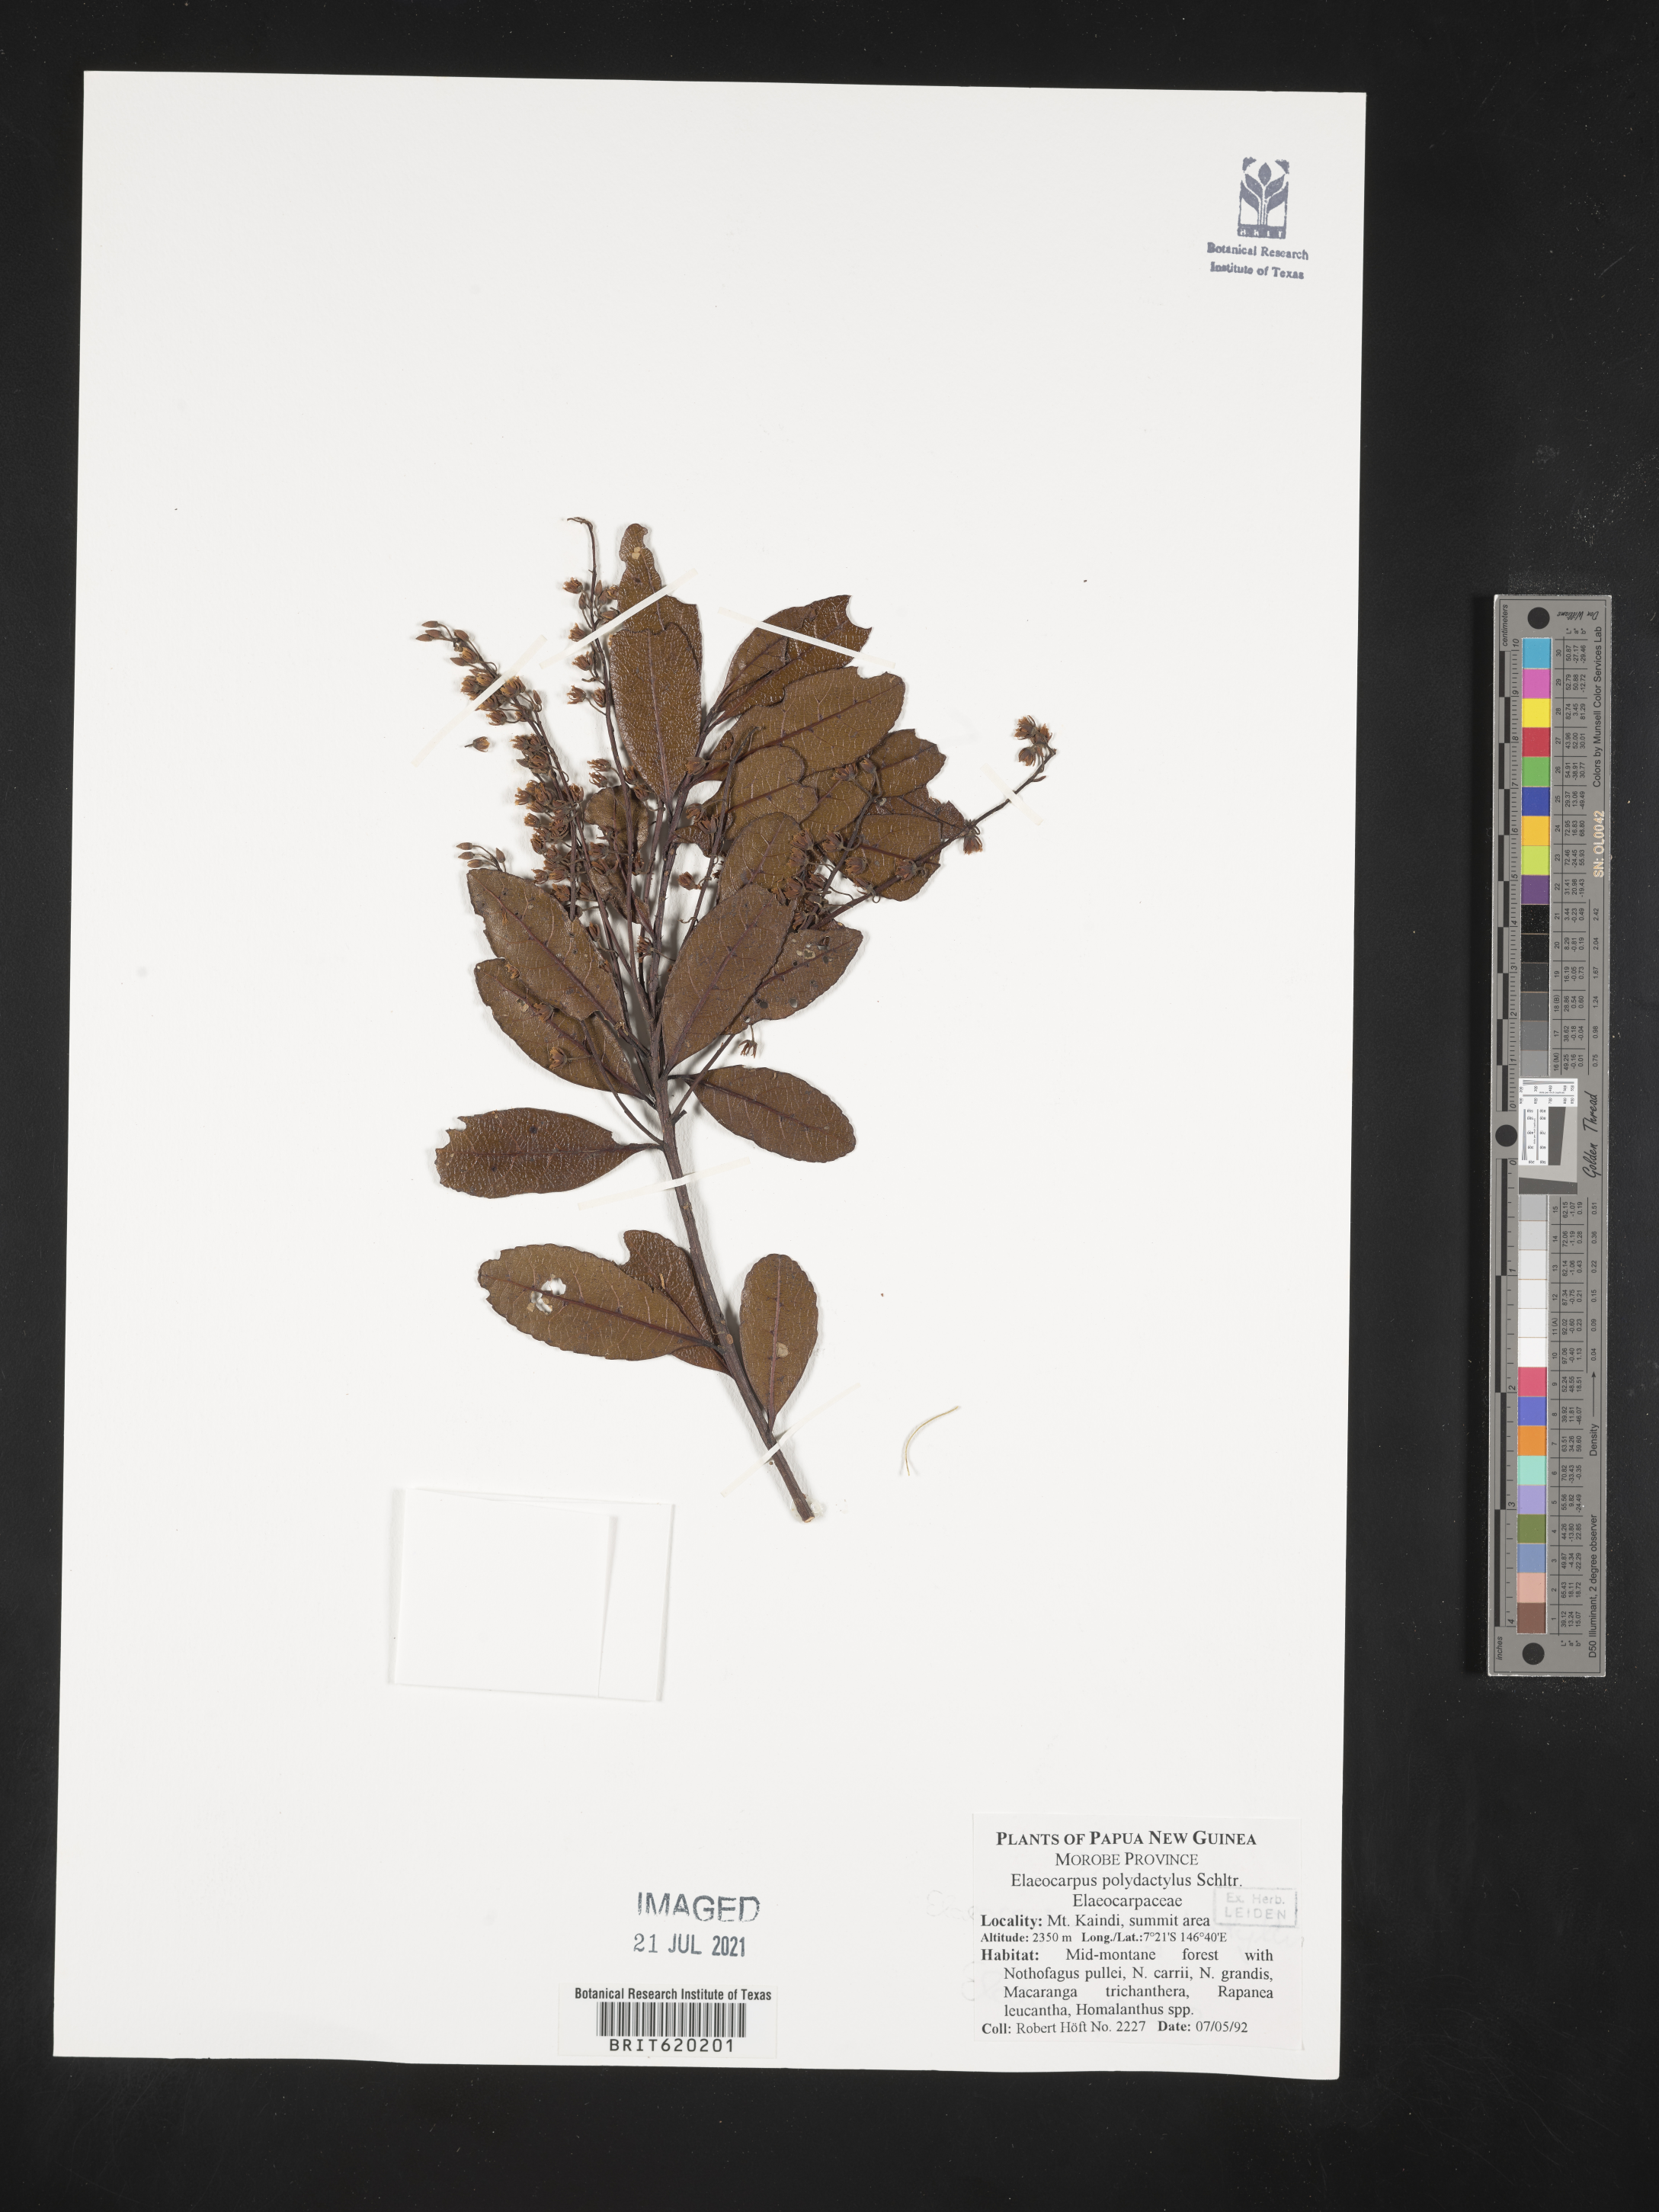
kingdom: Plantae
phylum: Tracheophyta
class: Magnoliopsida
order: Oxalidales
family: Elaeocarpaceae
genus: Elaeocarpus
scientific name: Elaeocarpus polydactylus
